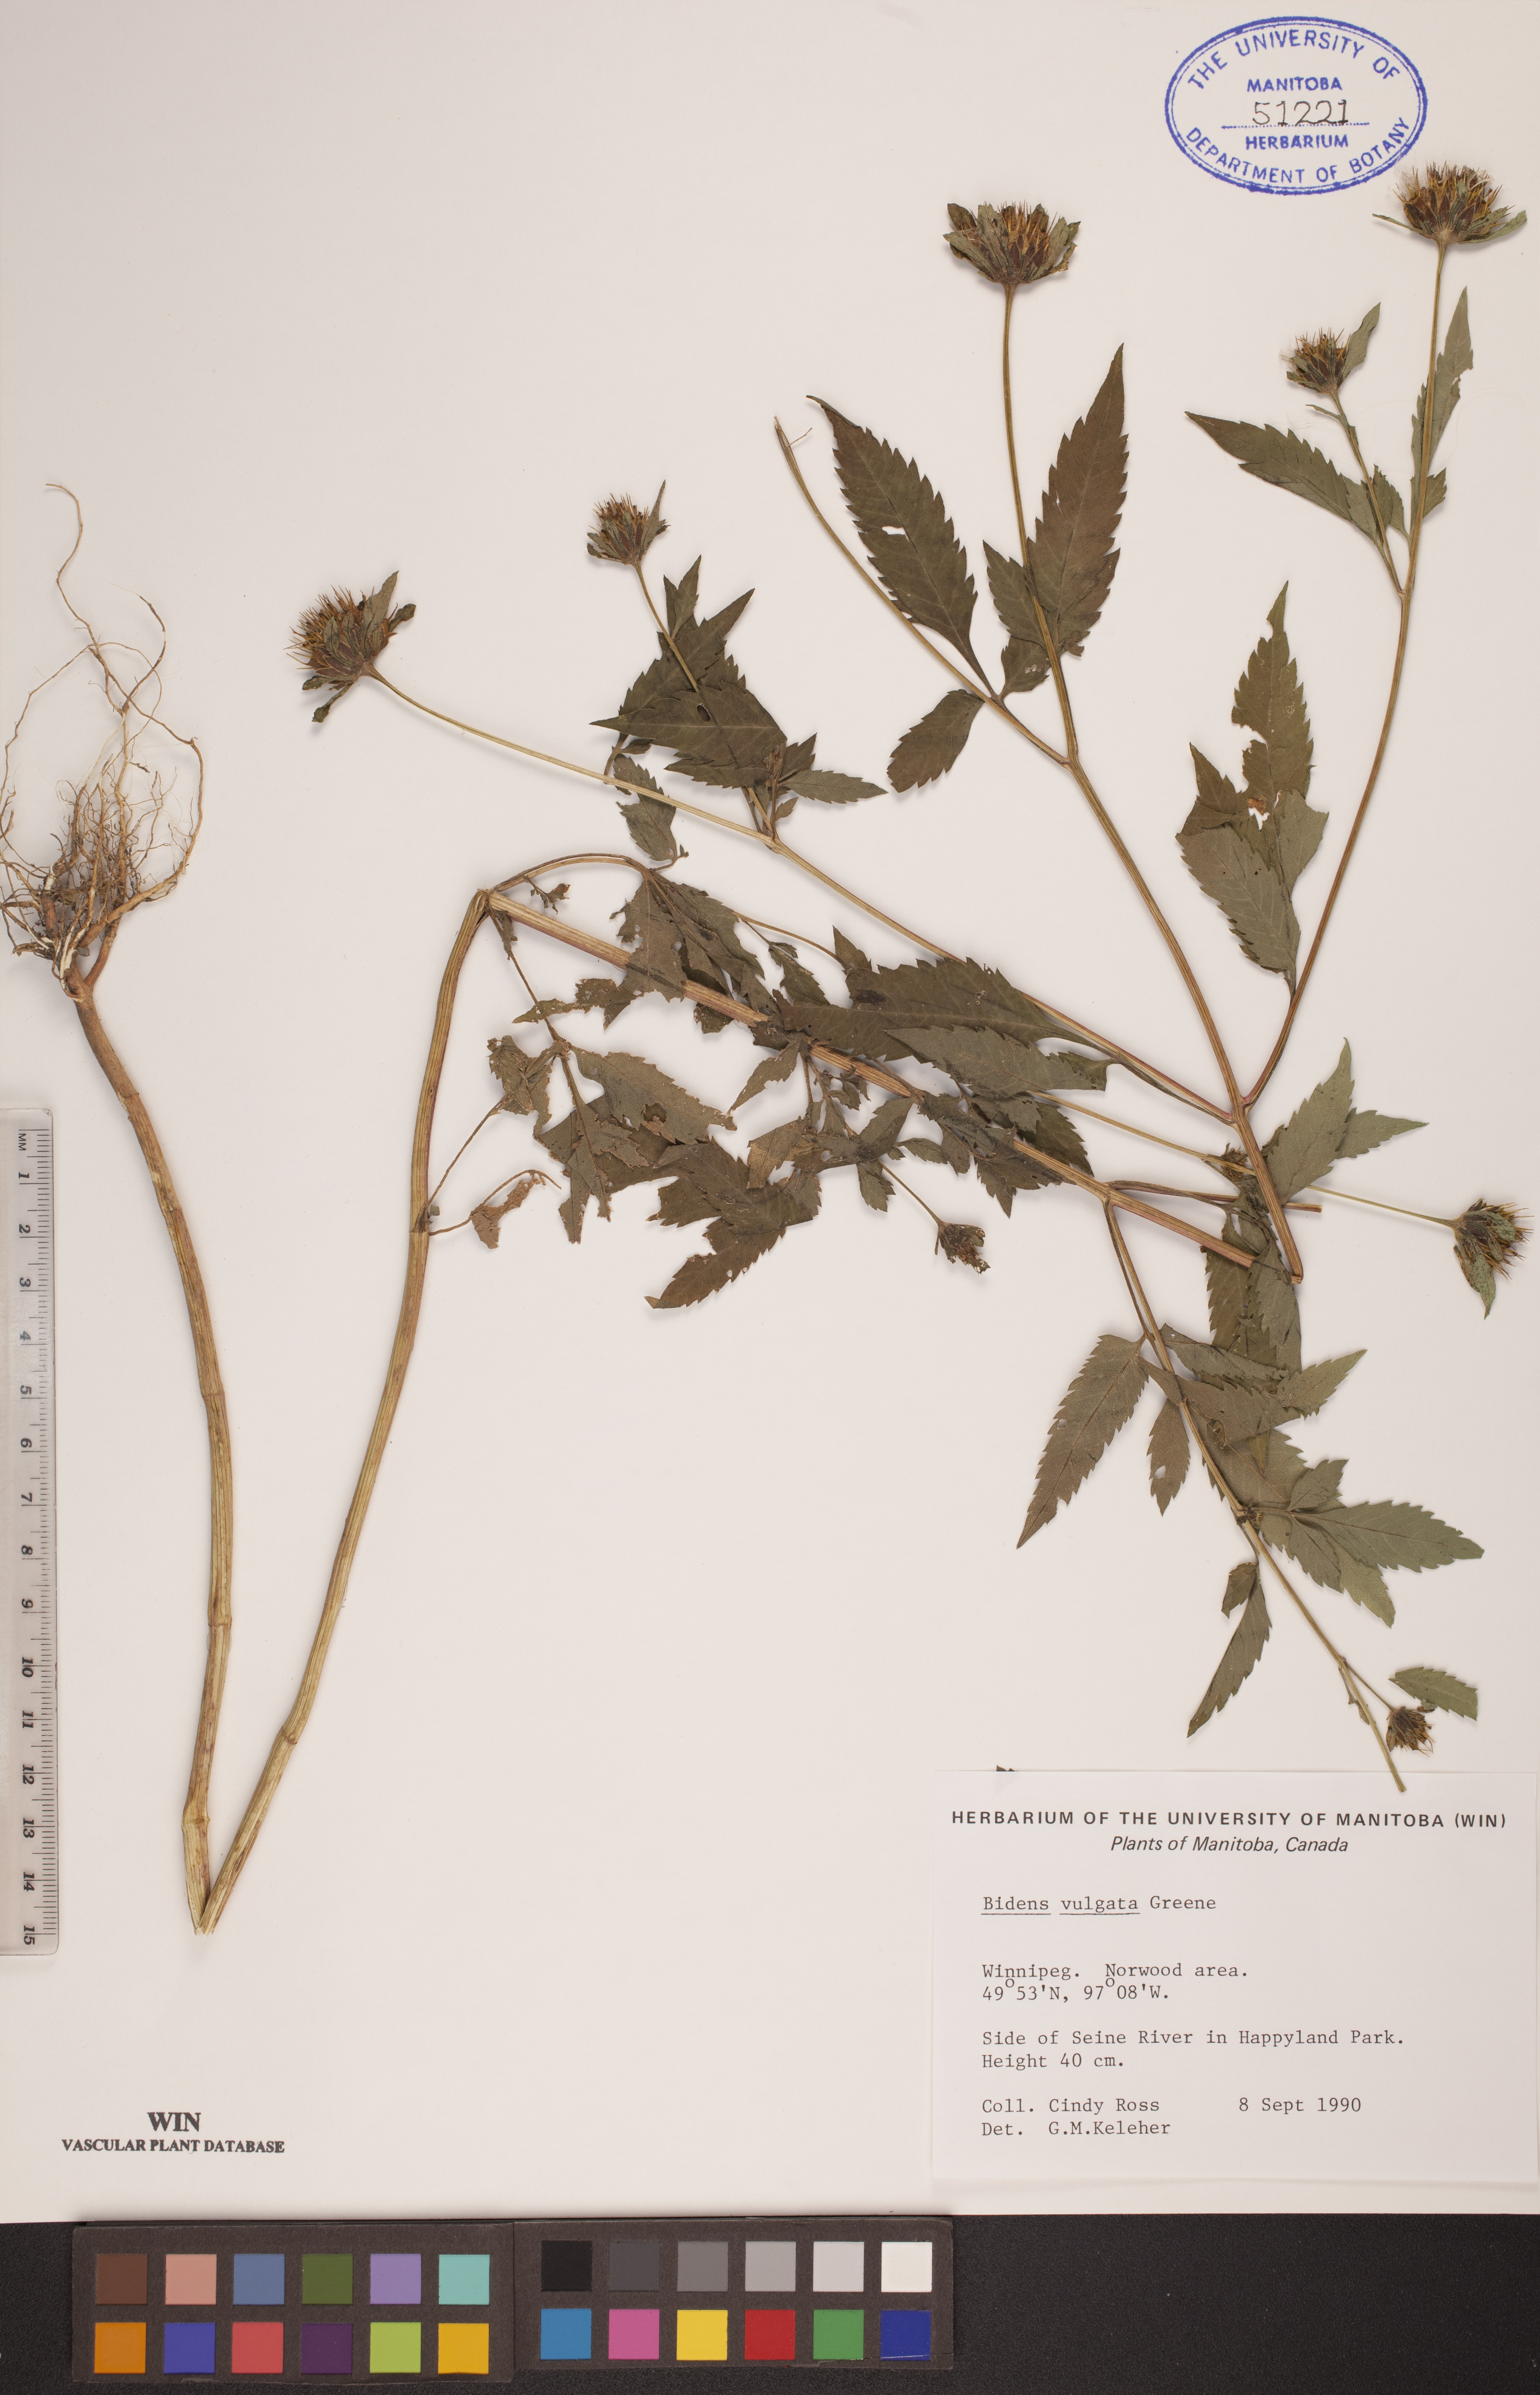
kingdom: Plantae
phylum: Tracheophyta
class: Magnoliopsida
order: Asterales
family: Asteraceae
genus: Bidens
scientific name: Bidens vulgata
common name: Tall beggarticks
